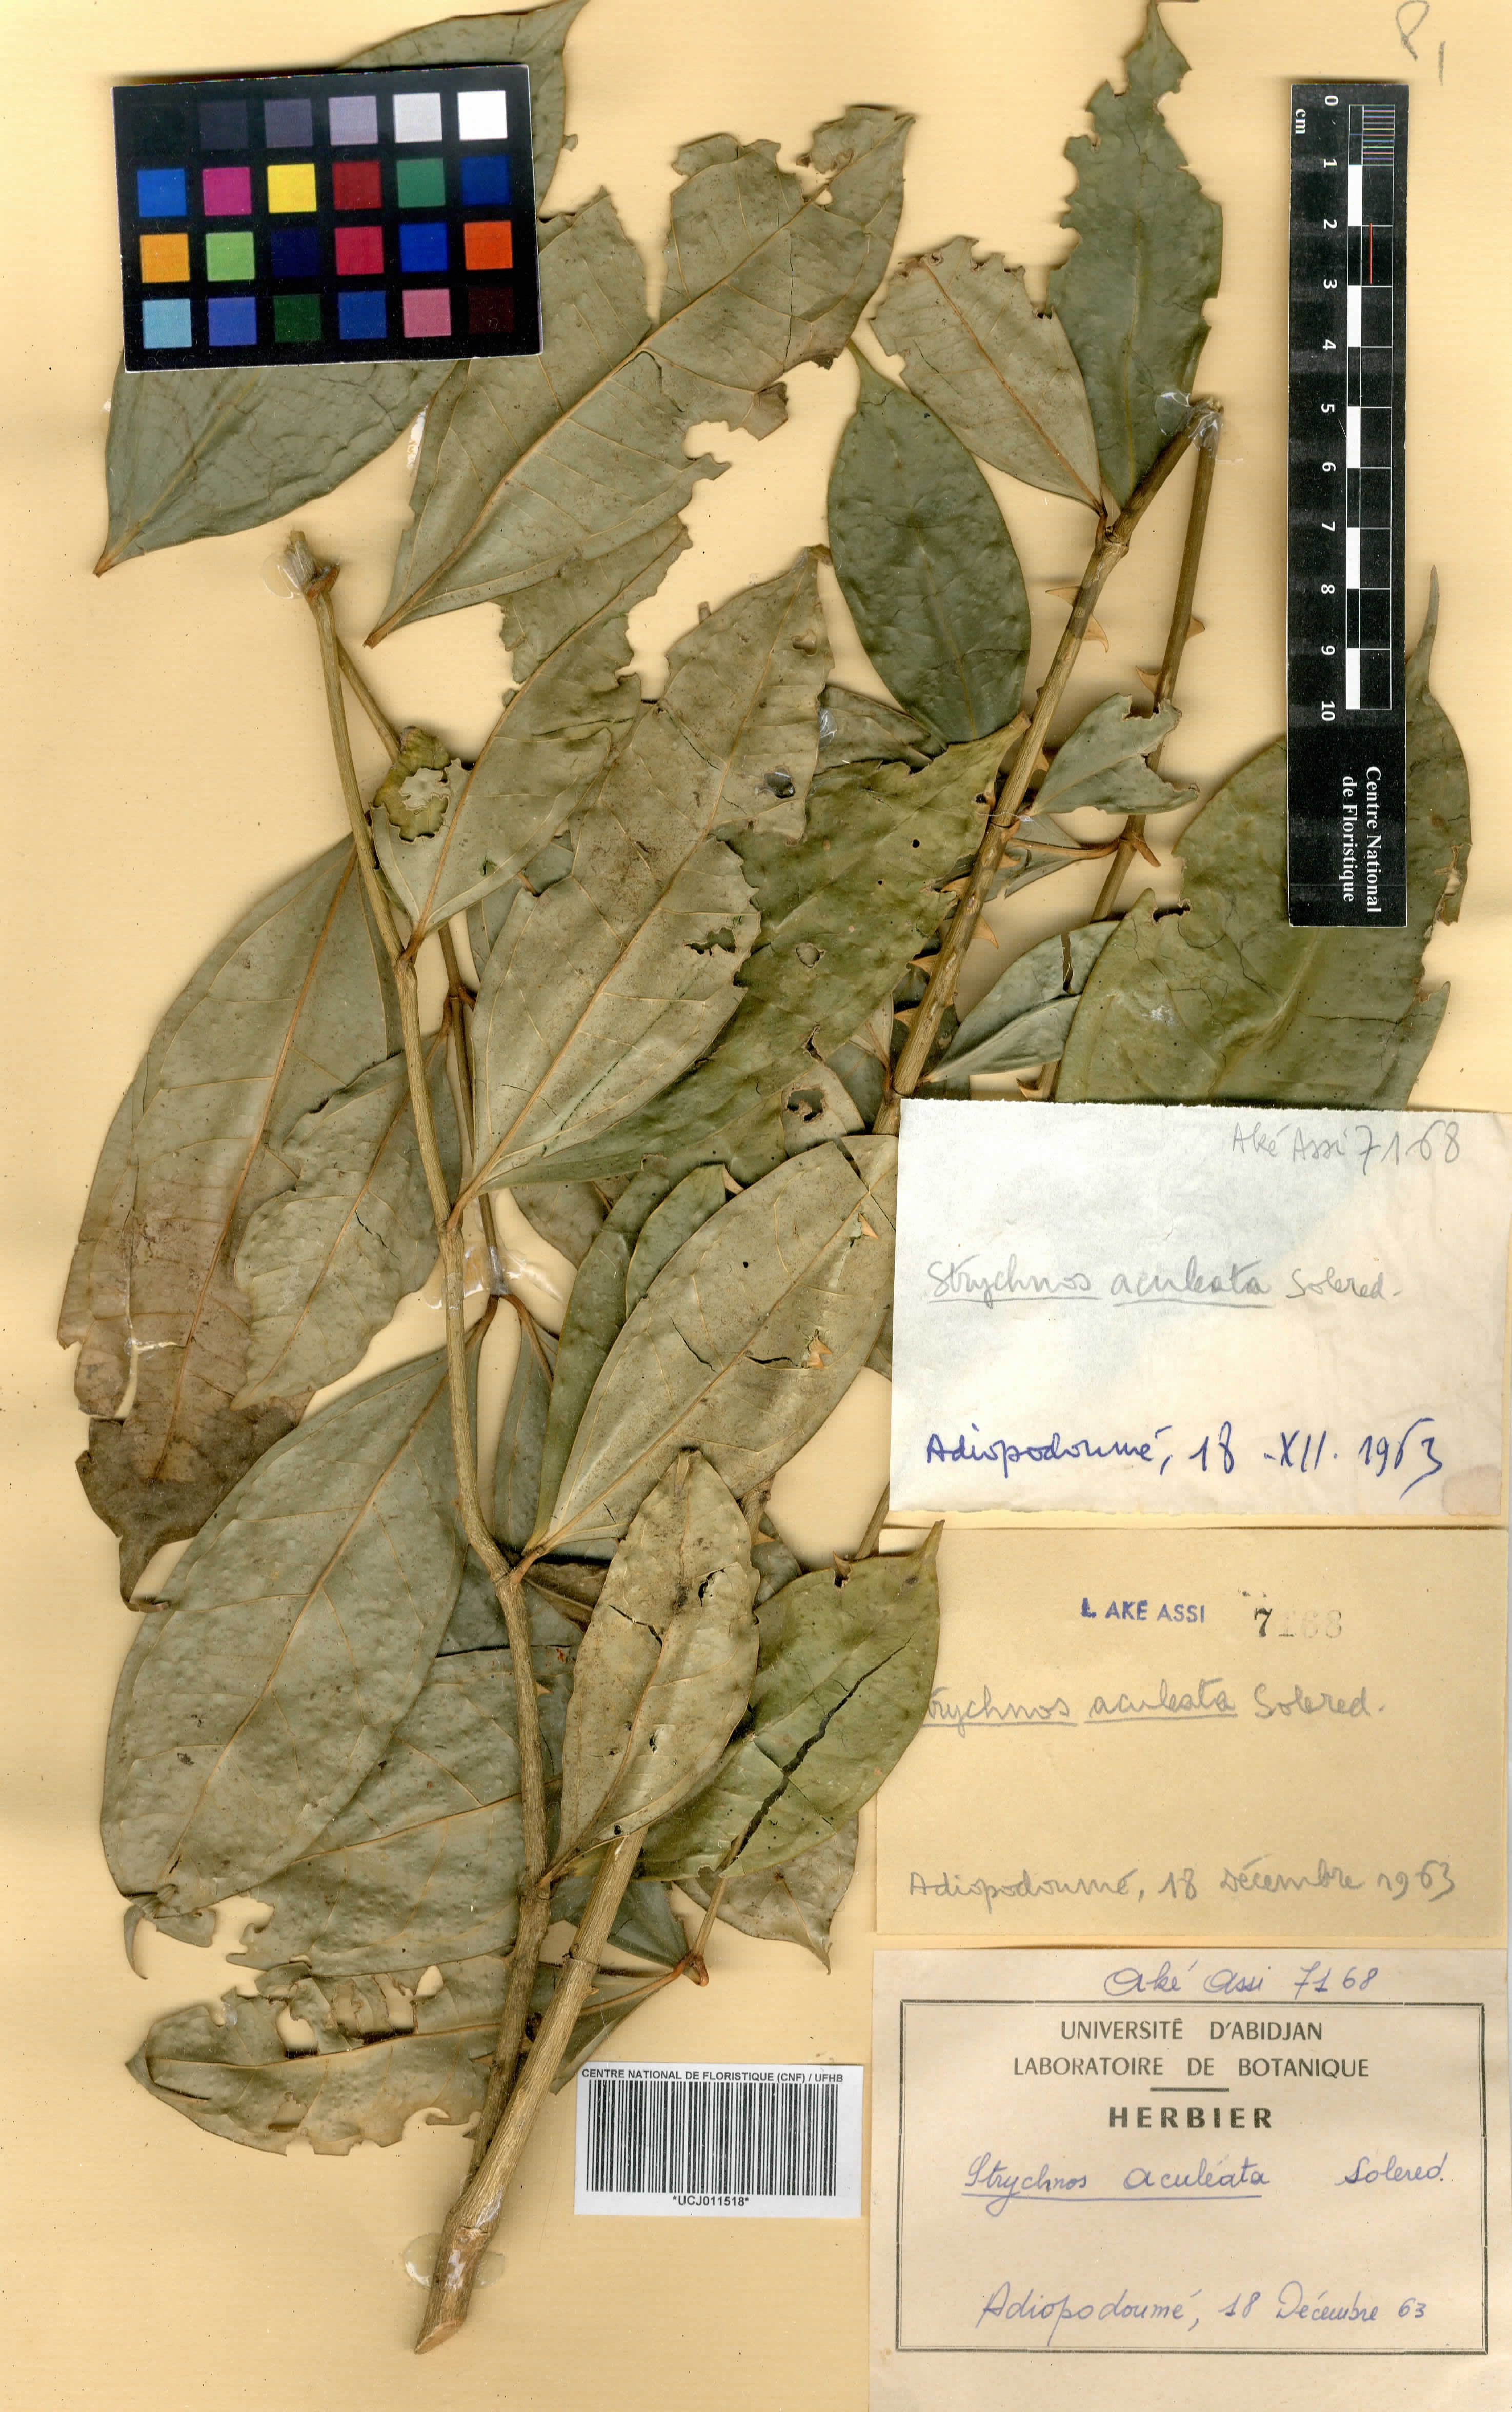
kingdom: Plantae
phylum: Tracheophyta
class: Magnoliopsida
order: Gentianales
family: Loganiaceae
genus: Strychnos
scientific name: Strychnos aculeata
